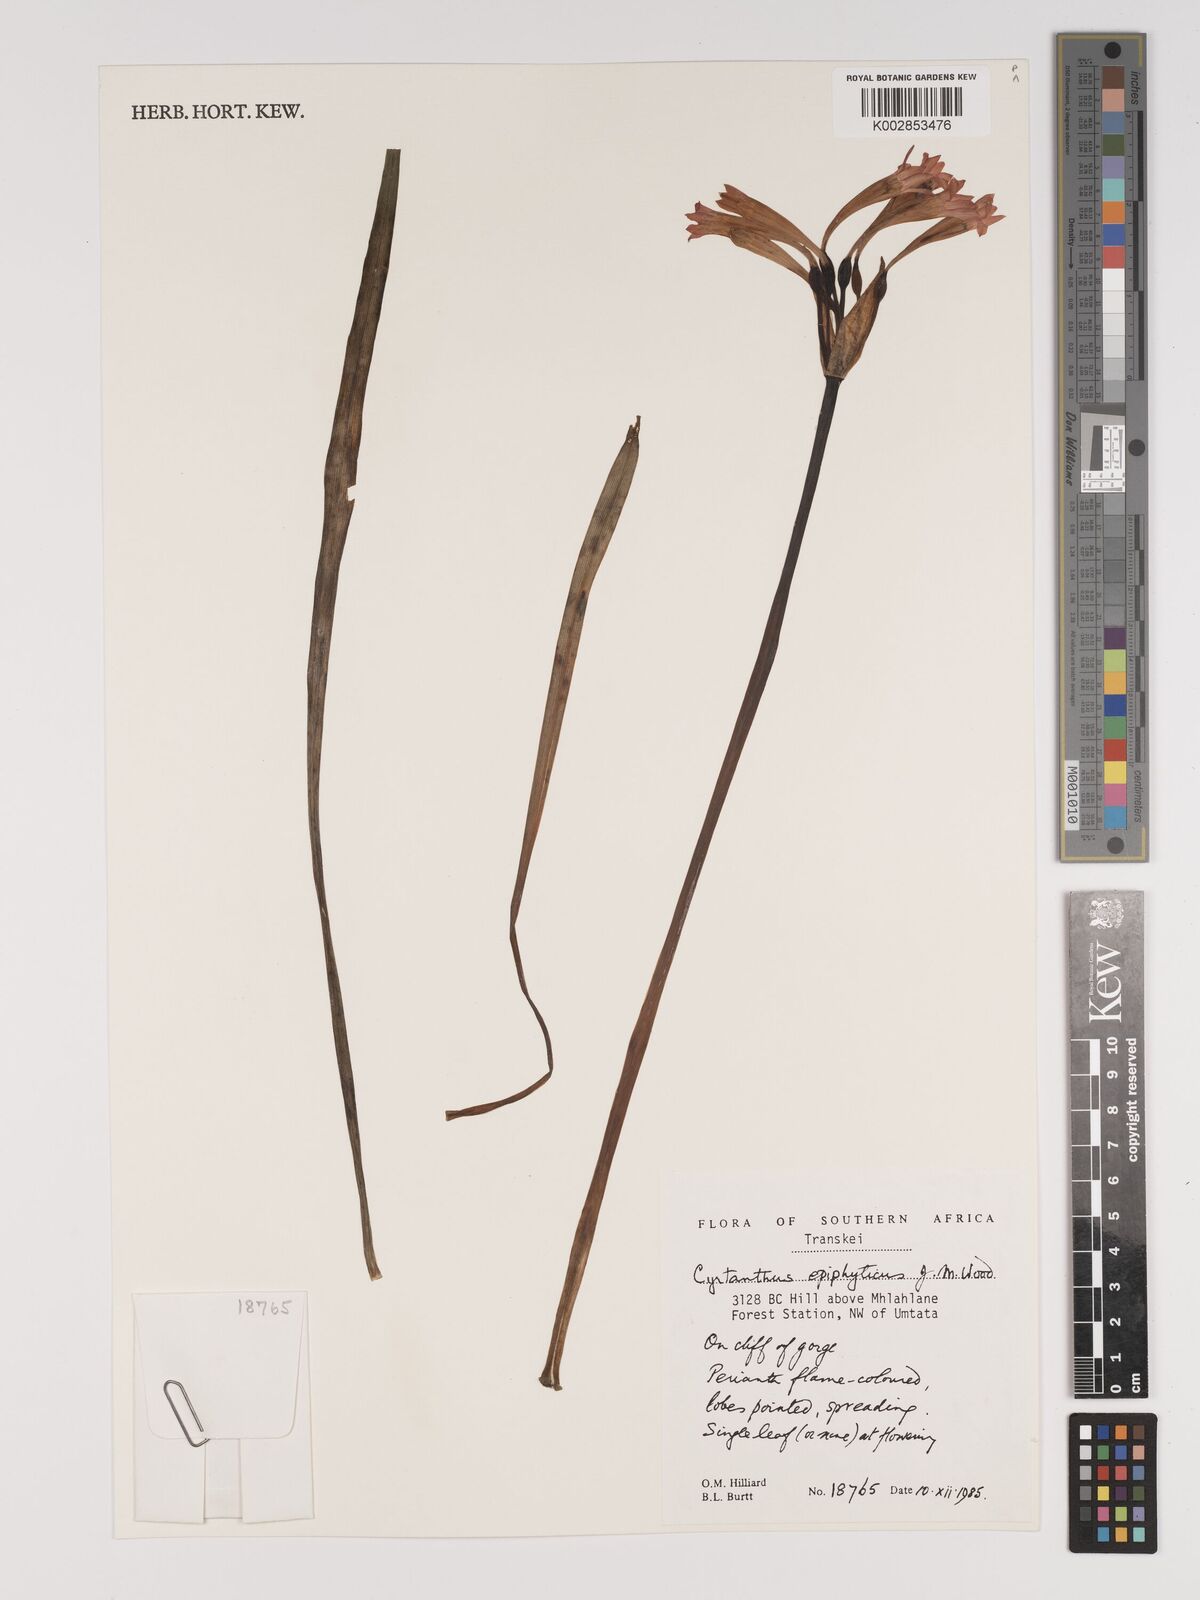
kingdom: Plantae
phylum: Tracheophyta
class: Liliopsida
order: Asparagales
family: Amaryllidaceae
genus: Cyrtanthus
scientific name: Cyrtanthus epiphyticus
